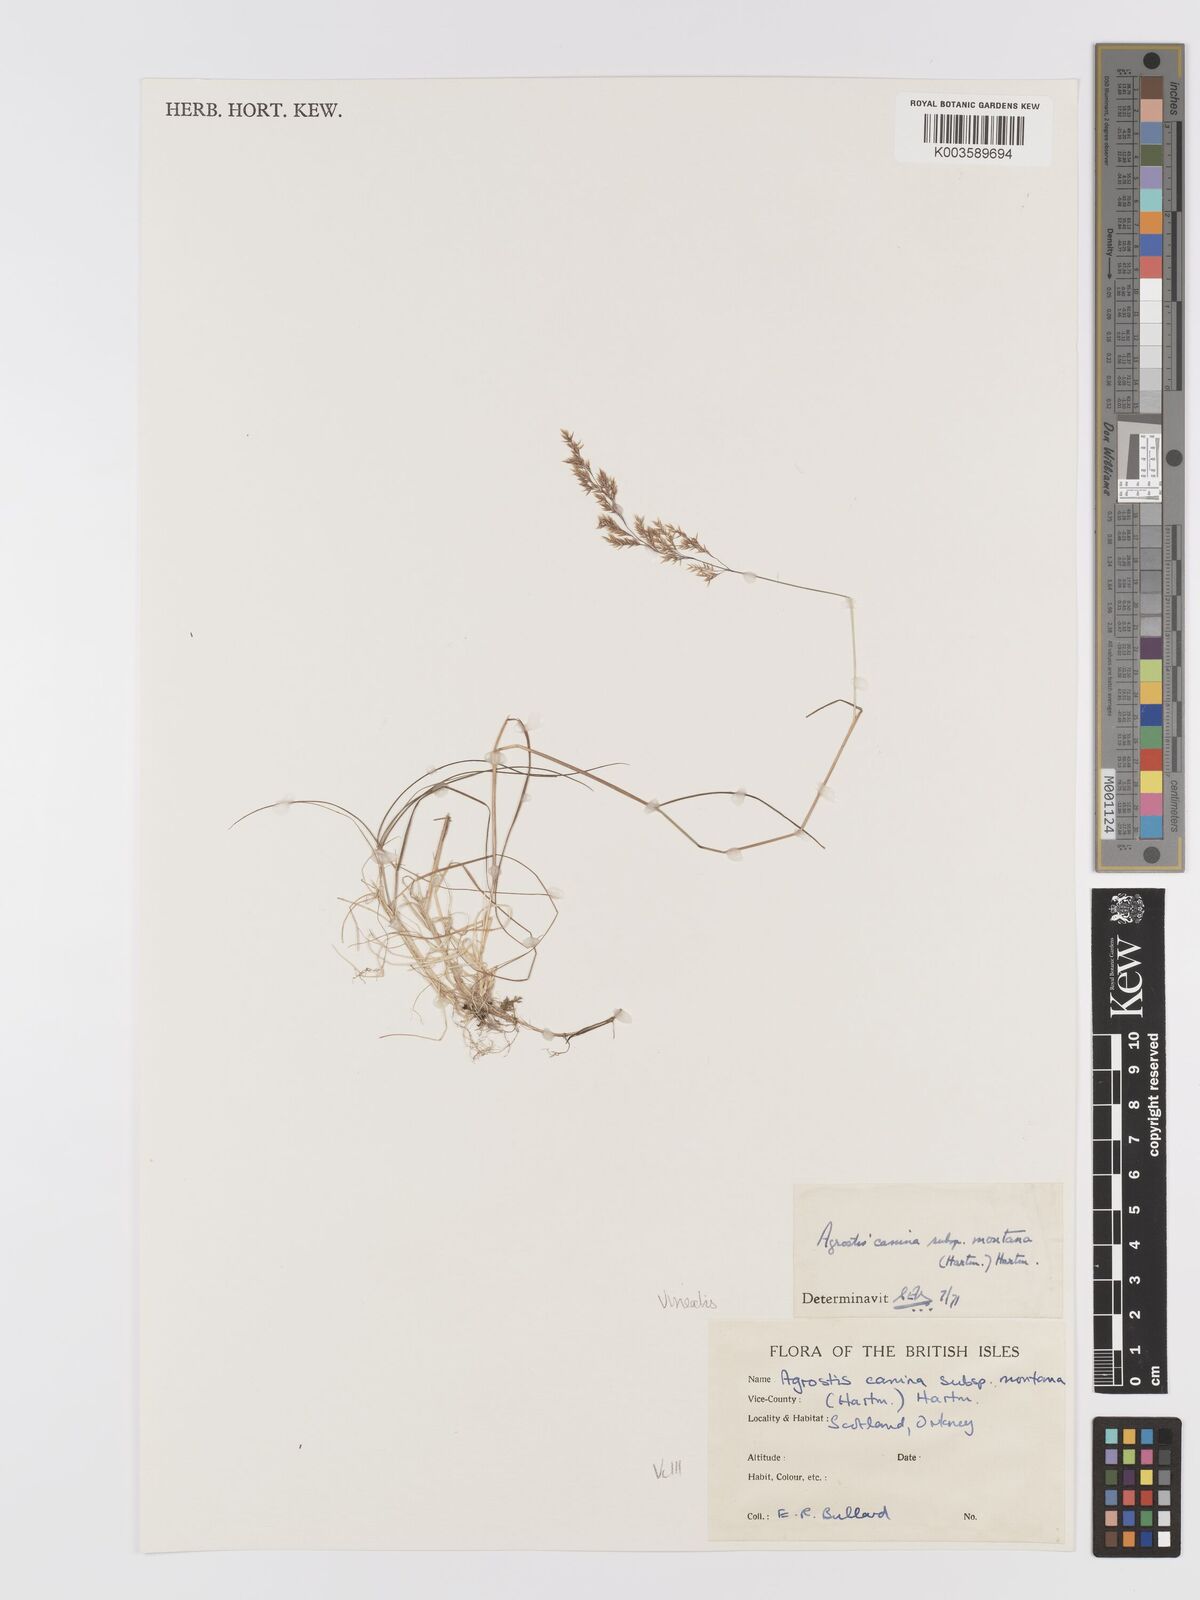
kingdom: Plantae
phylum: Tracheophyta
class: Liliopsida
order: Poales
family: Poaceae
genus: Agrostis
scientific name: Agrostis
